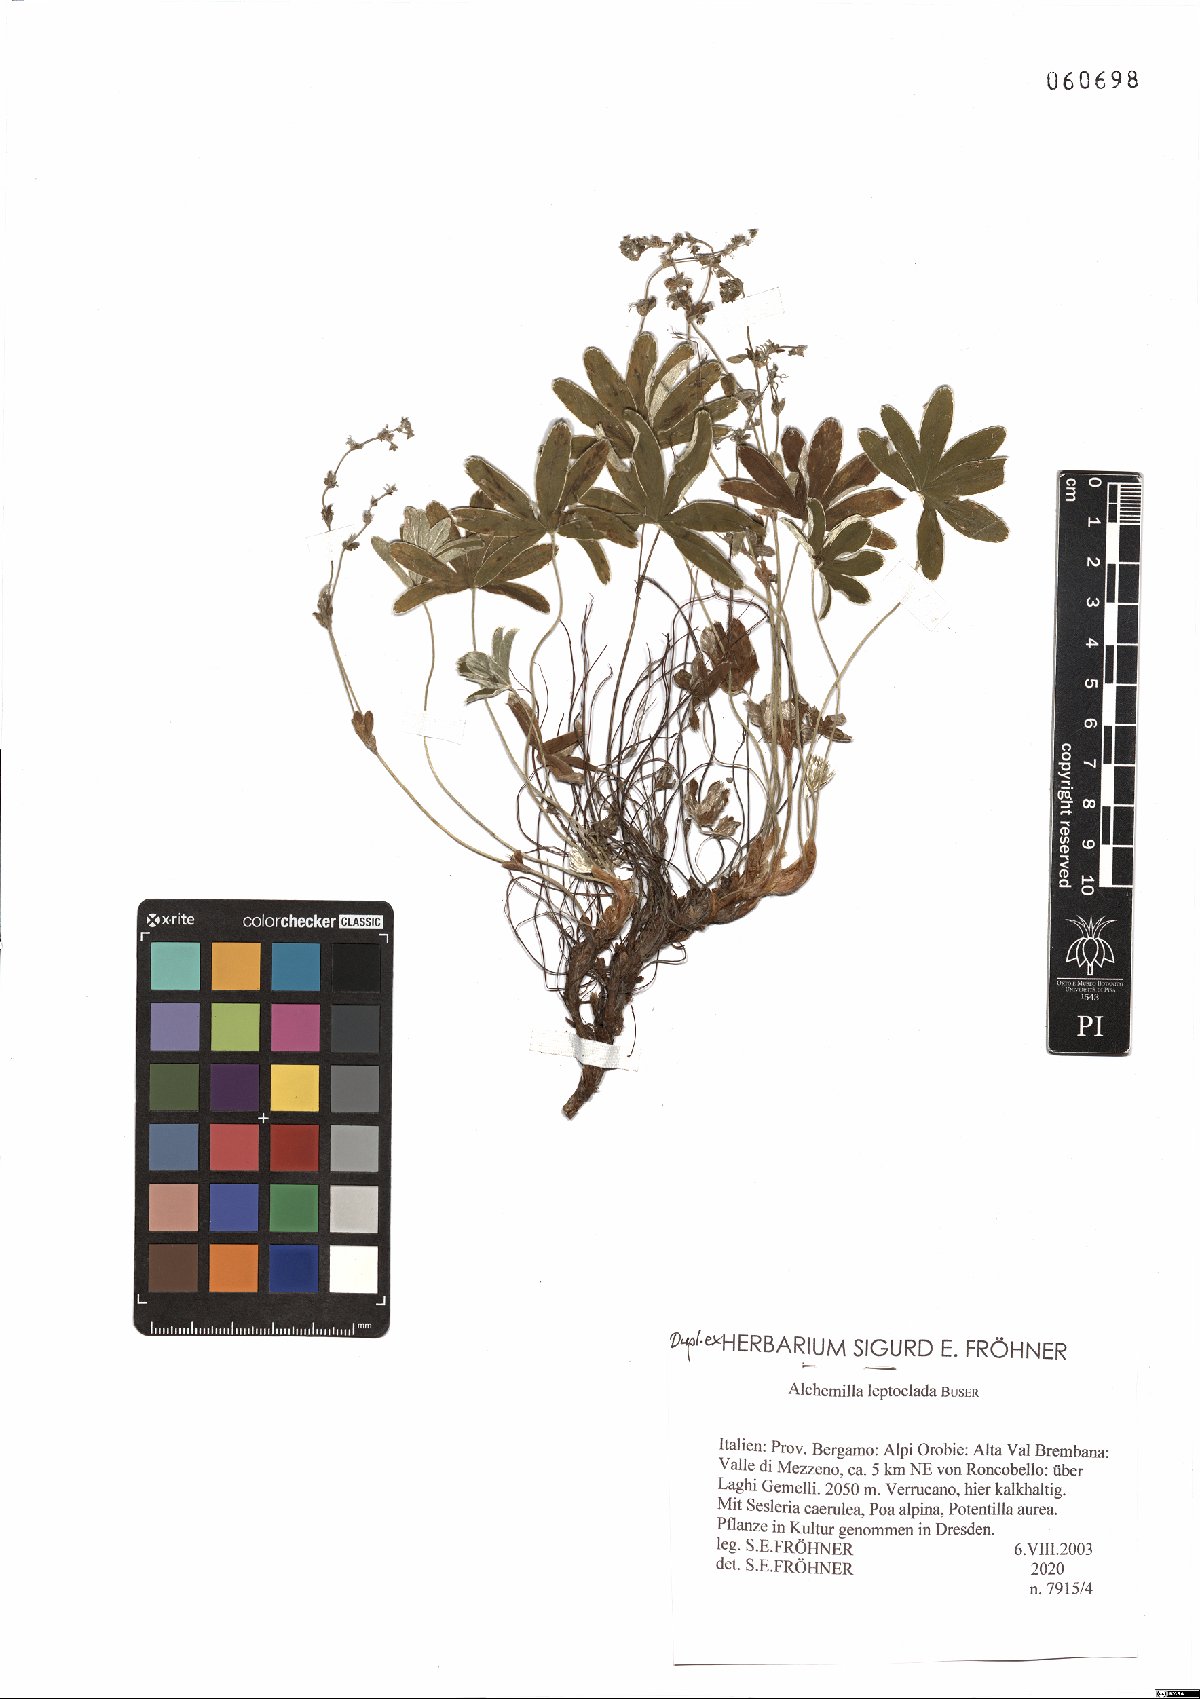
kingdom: Plantae
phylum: Tracheophyta
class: Magnoliopsida
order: Rosales
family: Rosaceae
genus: Alchemilla
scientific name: Alchemilla leptoclada
